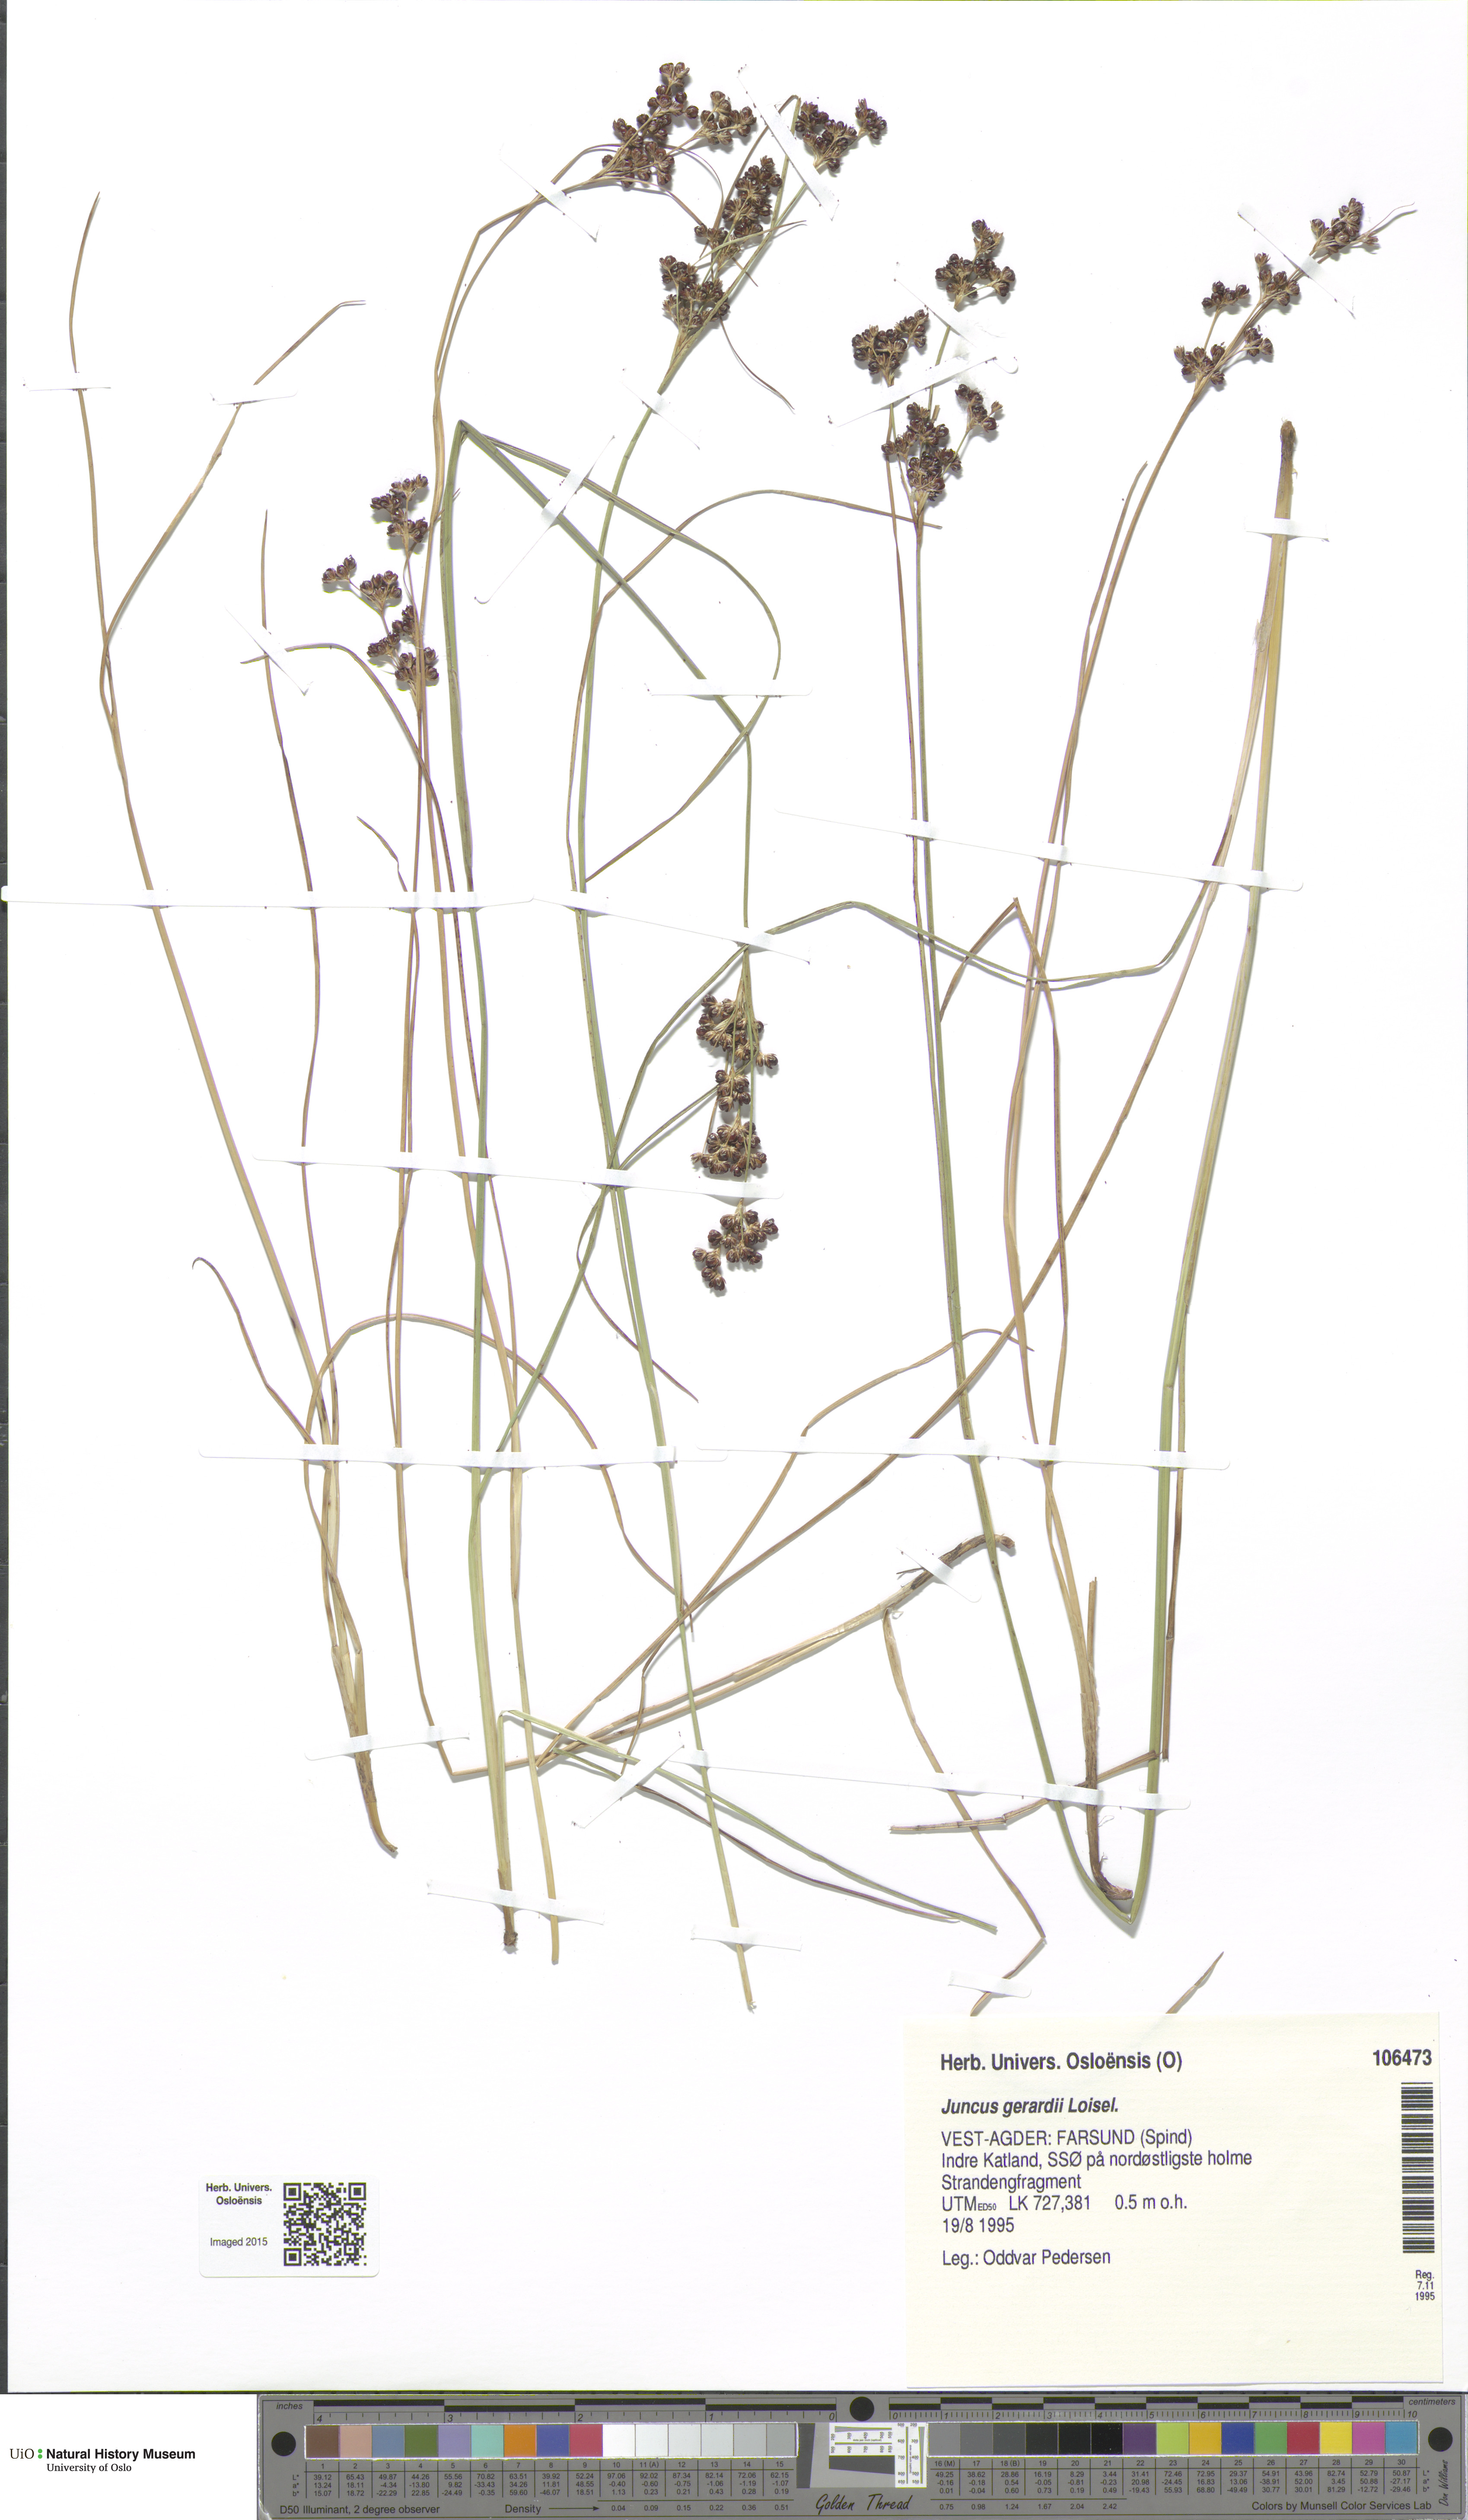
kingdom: Plantae
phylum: Tracheophyta
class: Liliopsida
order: Poales
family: Juncaceae
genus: Juncus
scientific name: Juncus gerardi
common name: Saltmarsh rush
